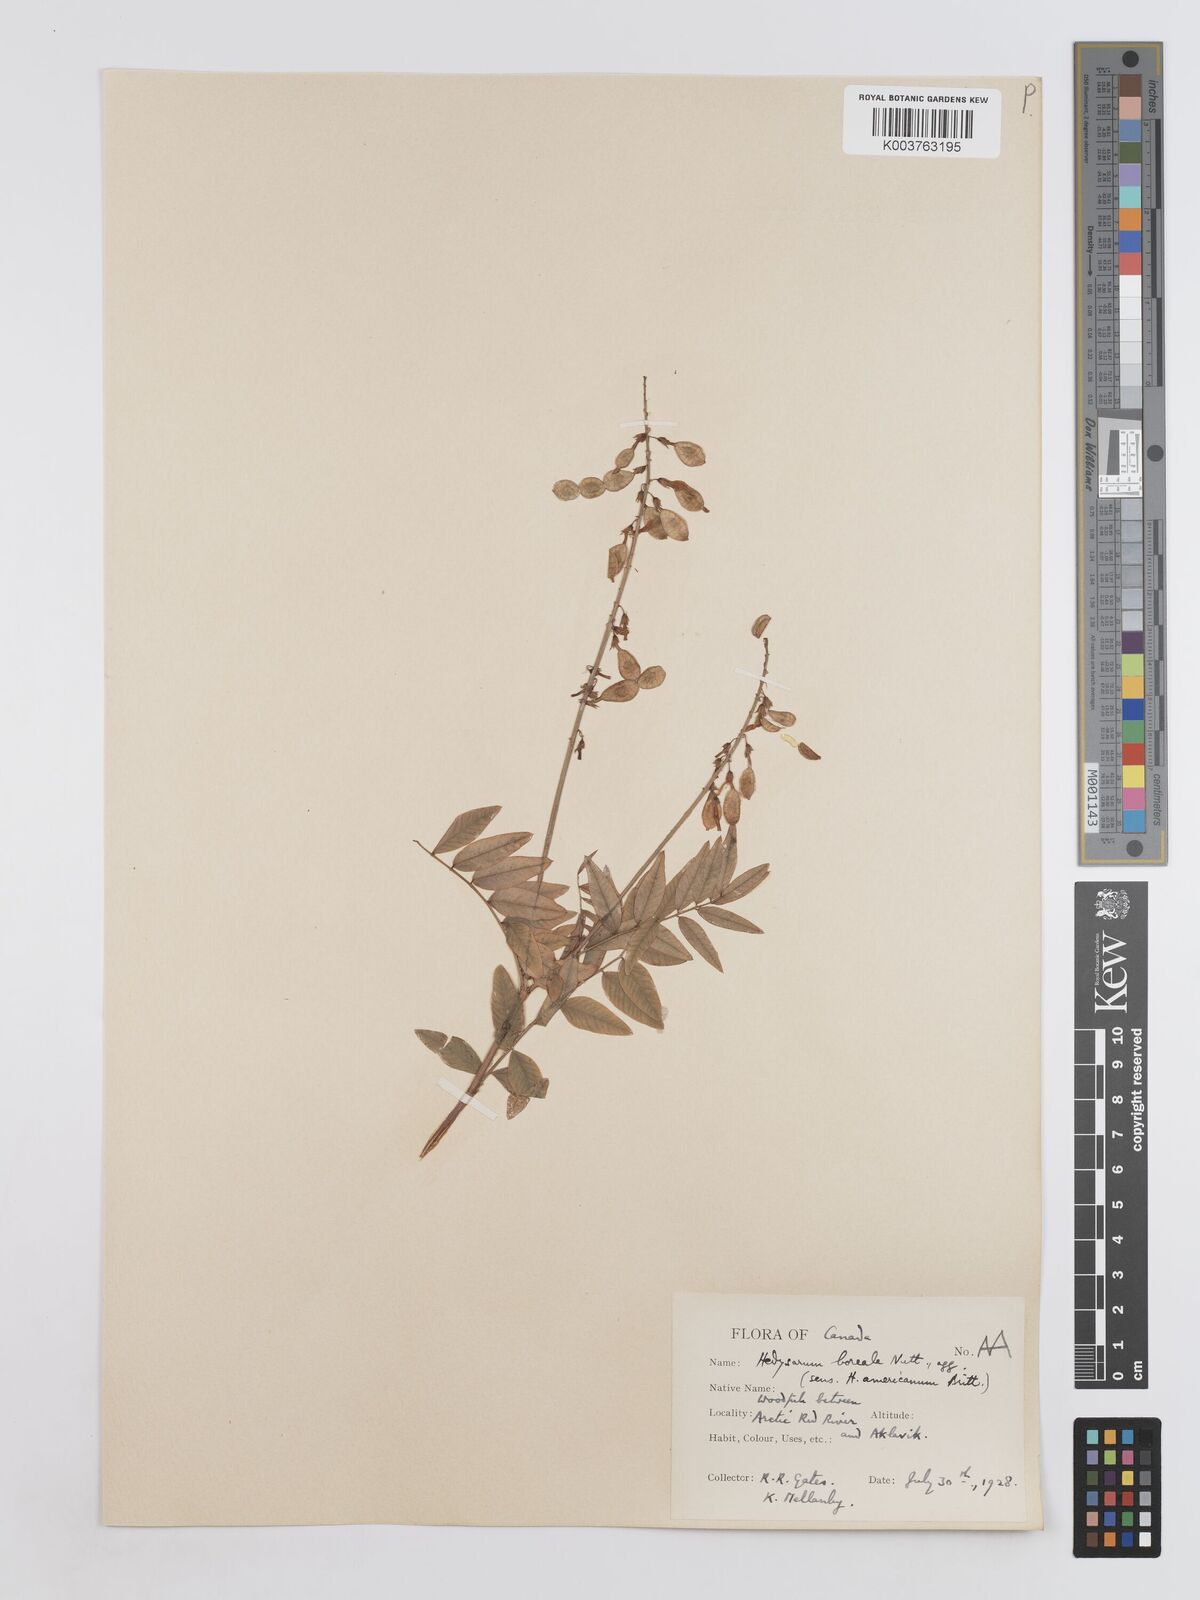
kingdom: Plantae
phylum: Tracheophyta
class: Magnoliopsida
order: Fabales
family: Fabaceae
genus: Hedysarum
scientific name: Hedysarum boreale
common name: Northern sweet-vetch
